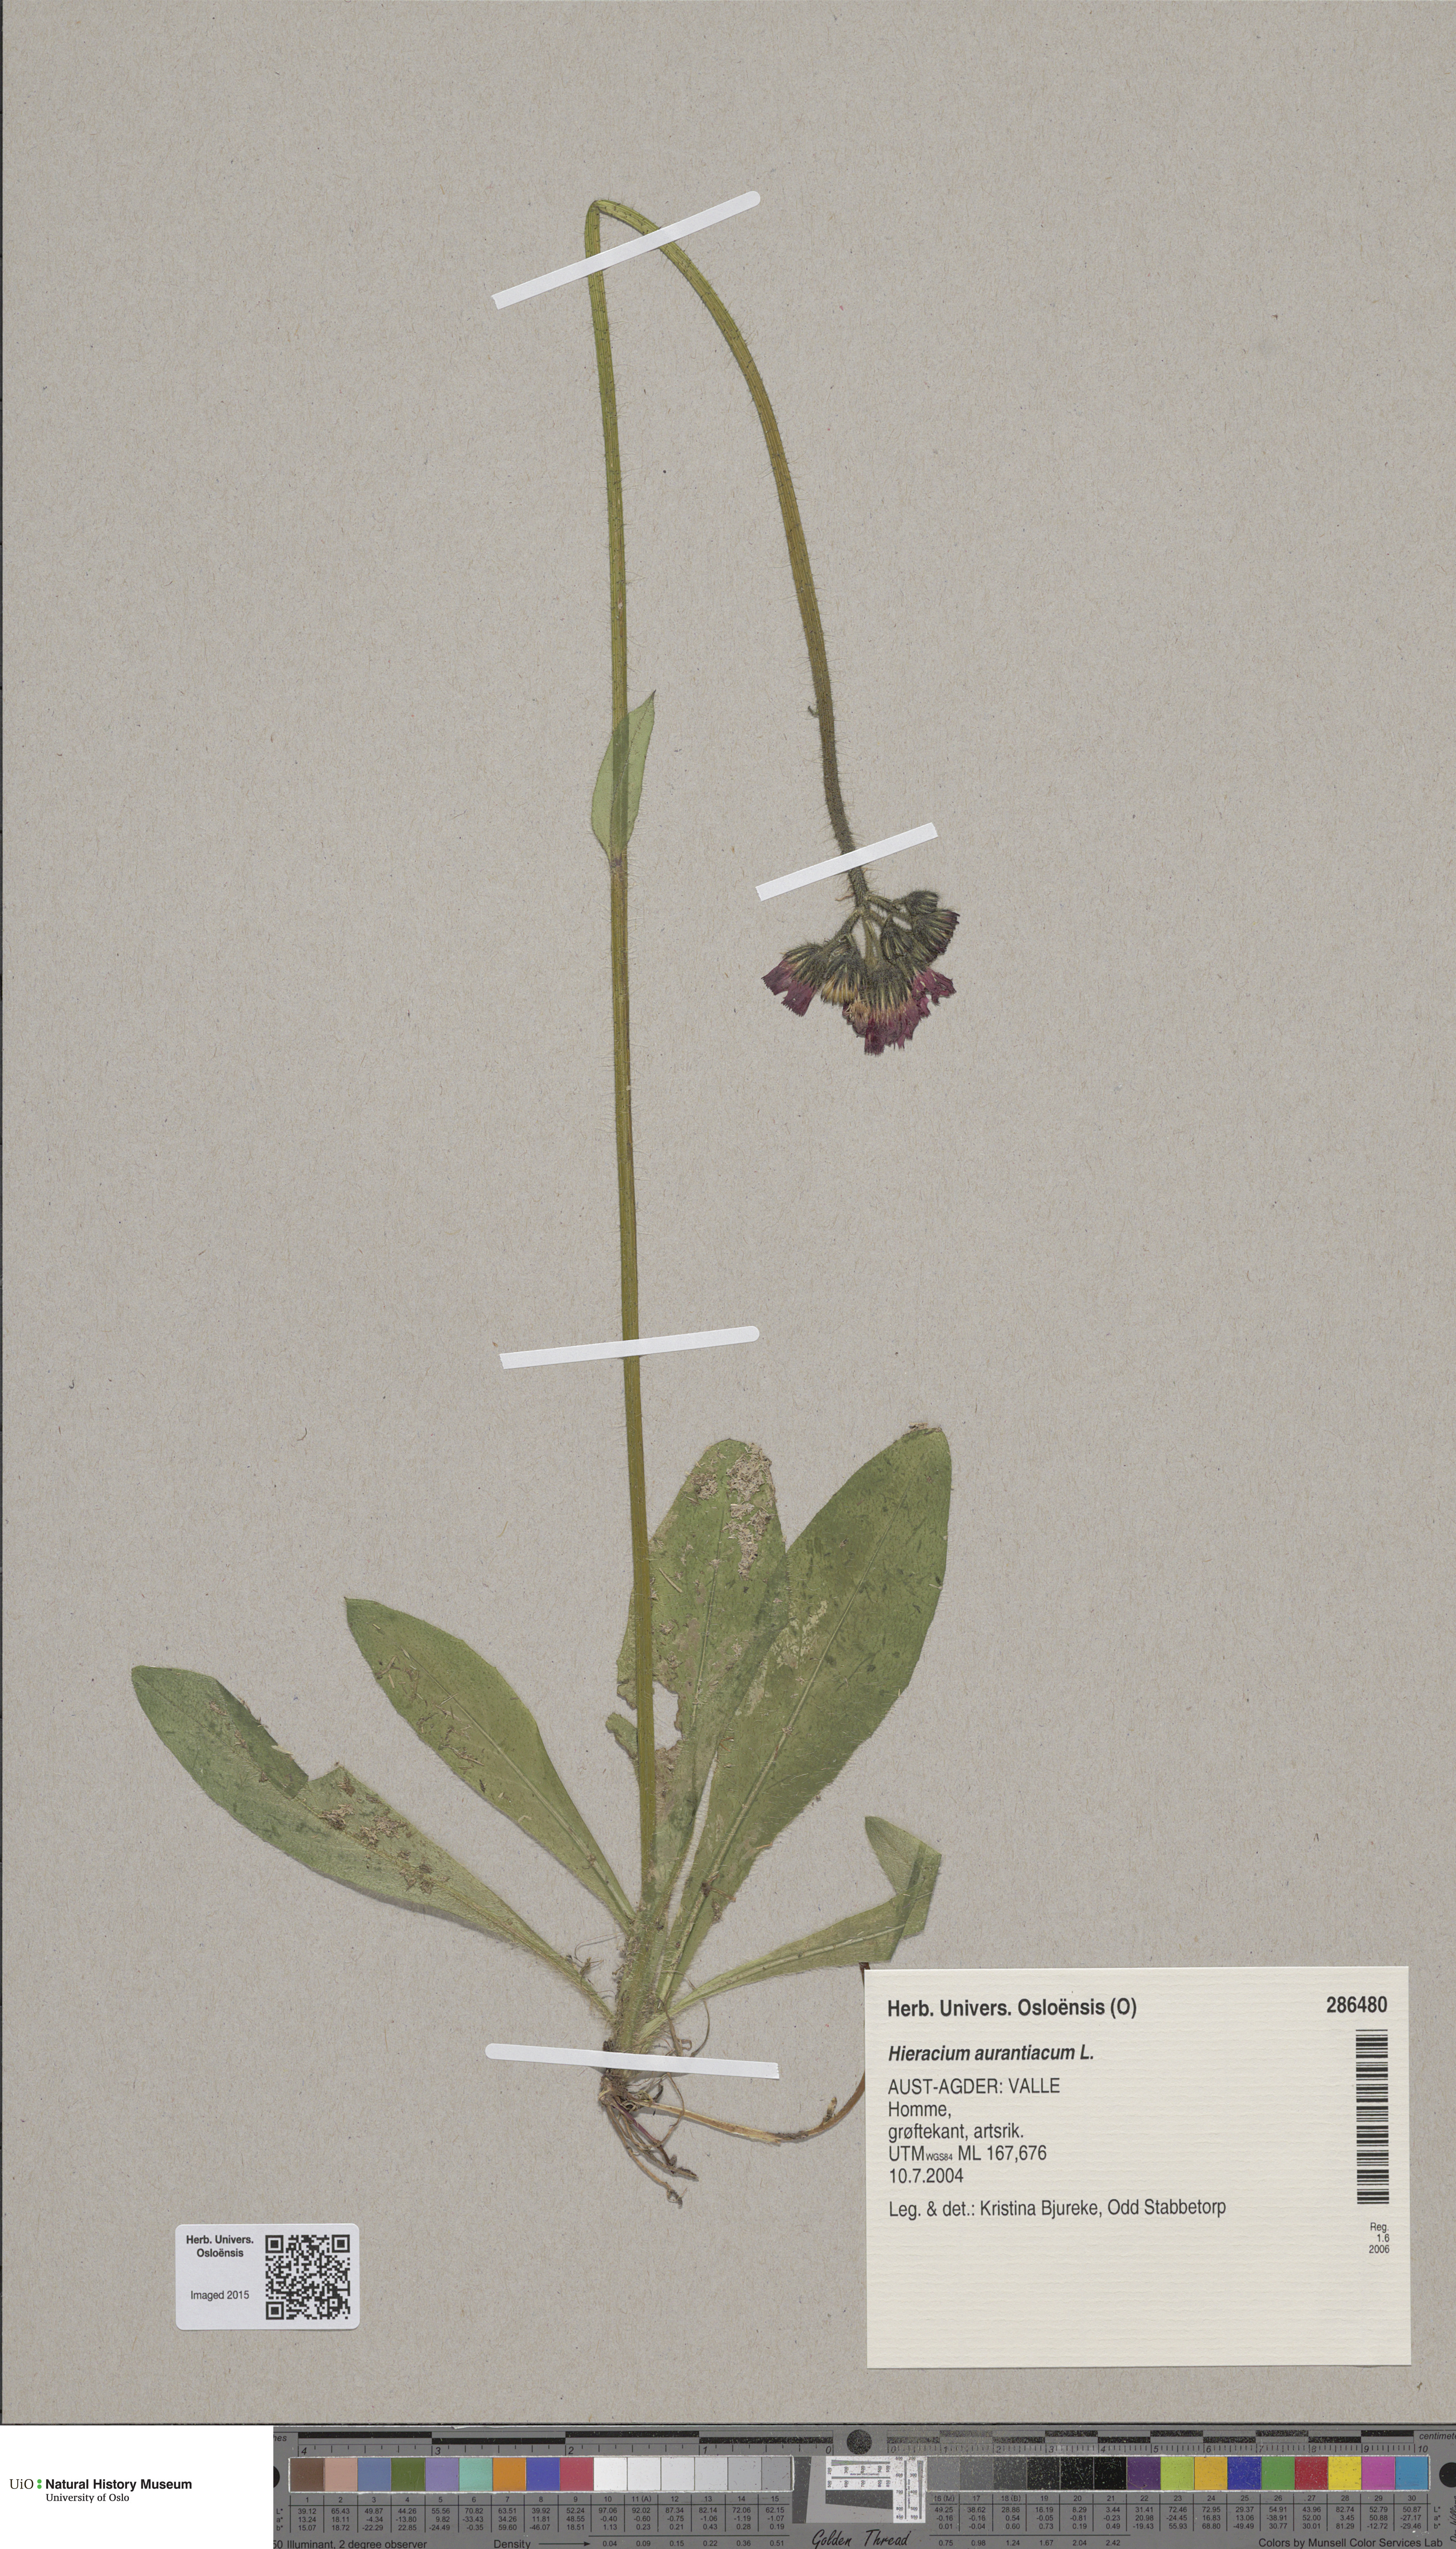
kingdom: Plantae
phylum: Tracheophyta
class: Magnoliopsida
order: Asterales
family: Asteraceae
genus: Pilosella
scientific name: Pilosella aurantiaca
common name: Fox-and-cubs
